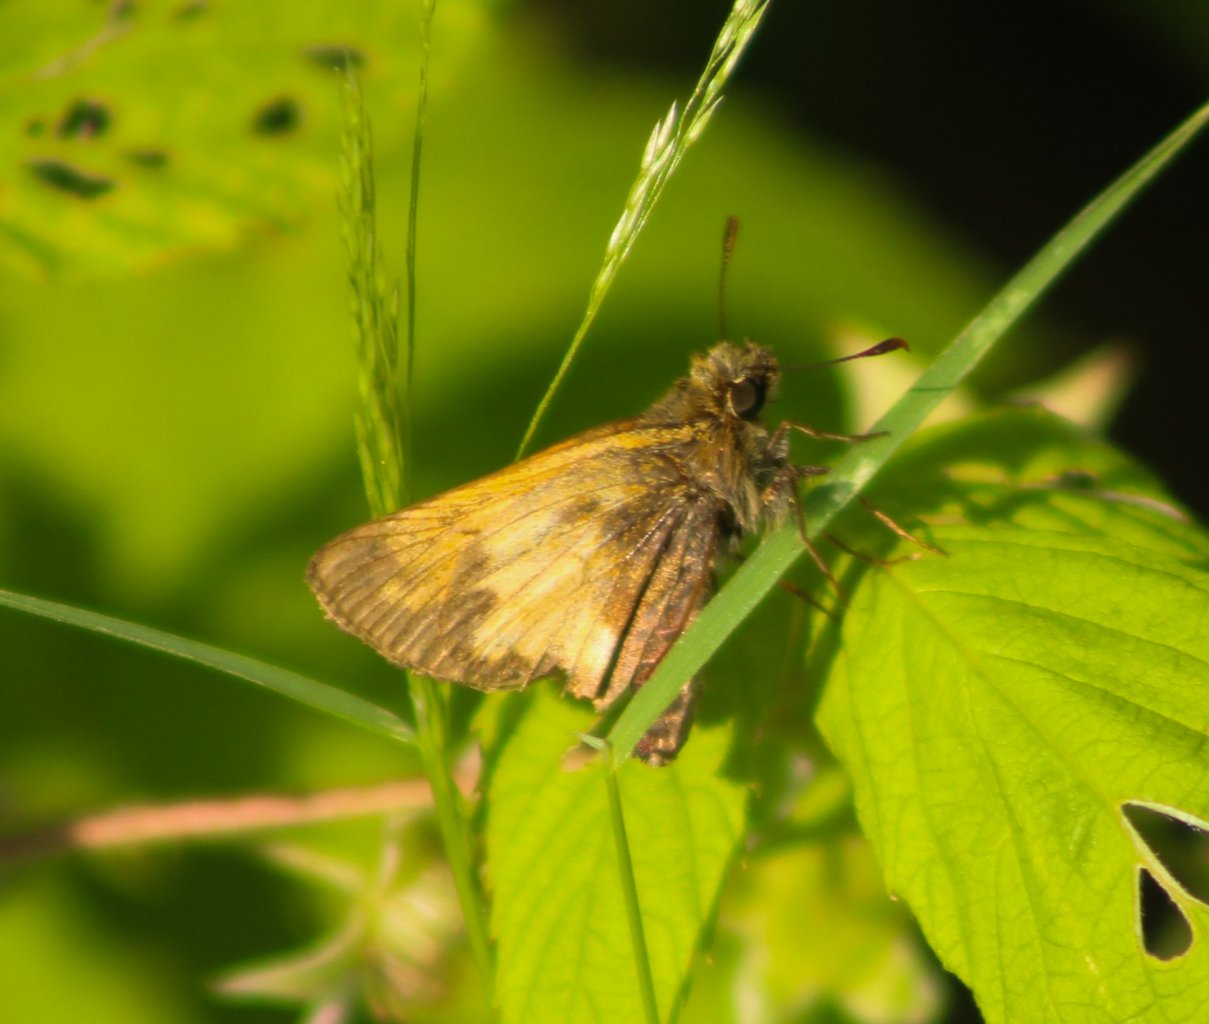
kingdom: Animalia
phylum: Arthropoda
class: Insecta
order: Lepidoptera
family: Hesperiidae
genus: Lon
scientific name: Lon hobomok
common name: Hobomok Skipper
